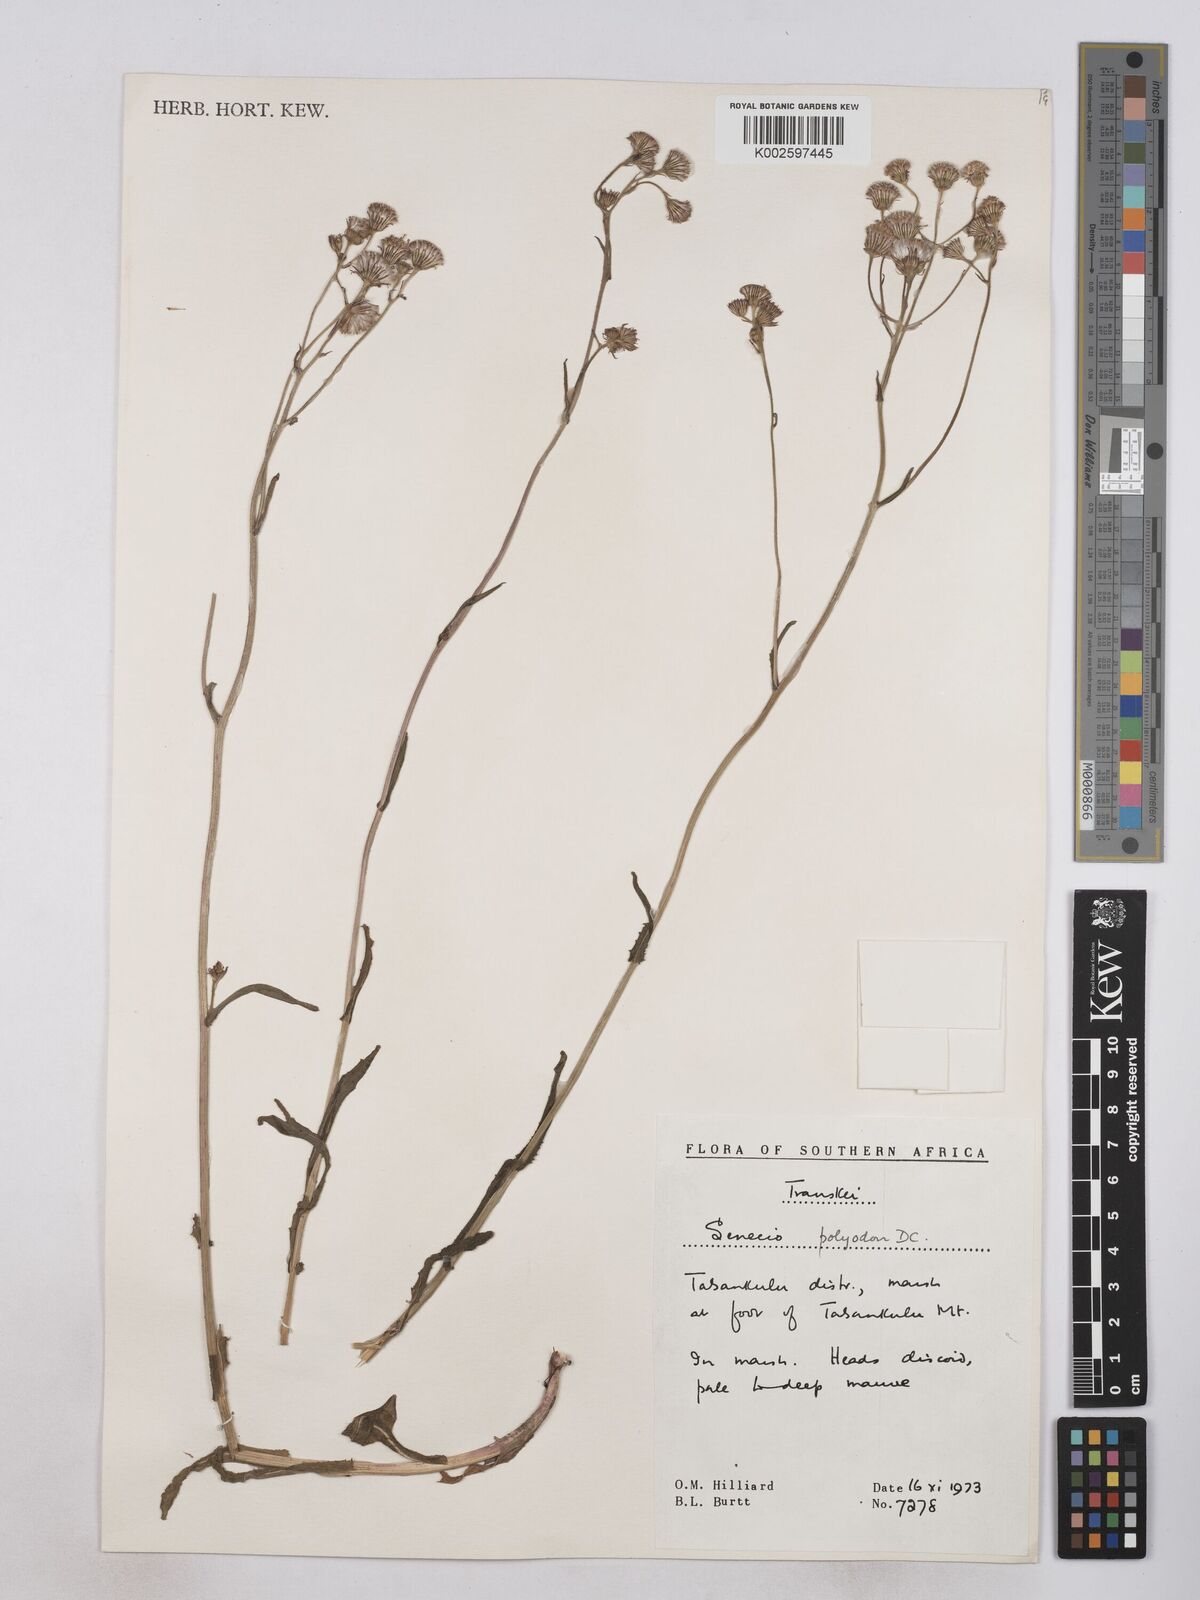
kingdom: Plantae
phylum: Tracheophyta
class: Magnoliopsida
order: Asterales
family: Asteraceae
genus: Senecio
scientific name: Senecio polyodon
